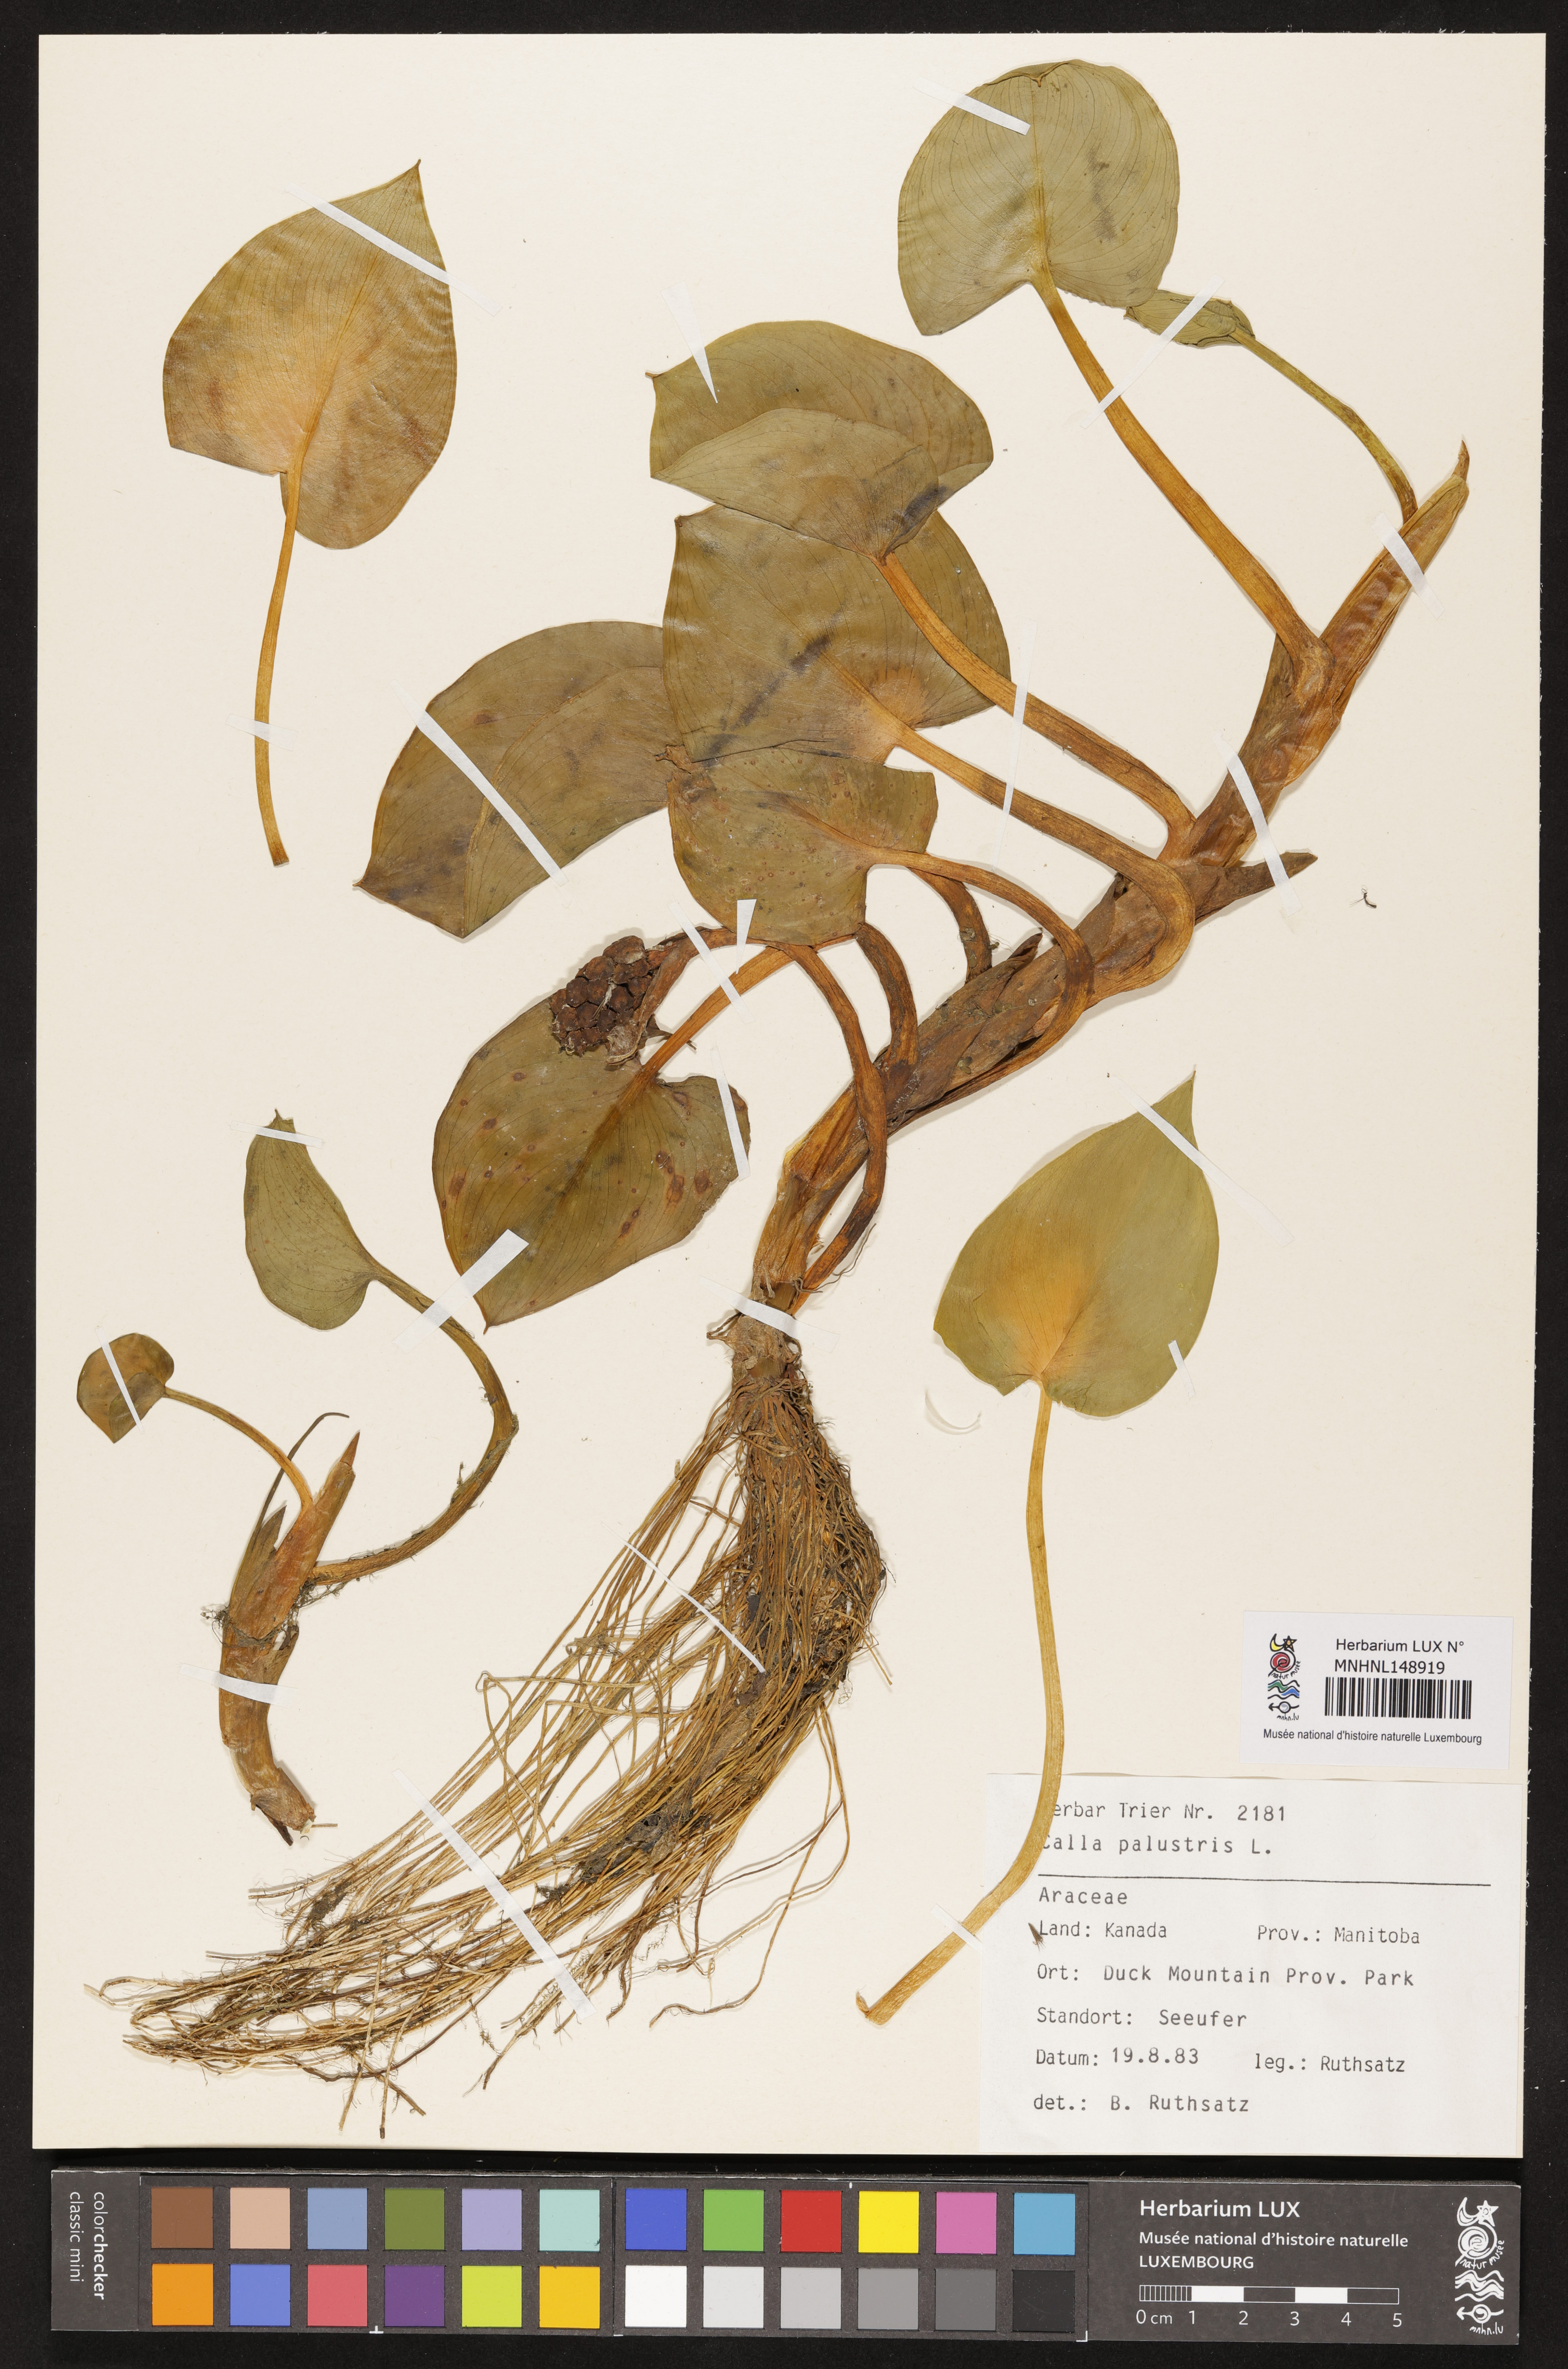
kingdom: Plantae
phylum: Tracheophyta
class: Liliopsida
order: Alismatales
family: Araceae
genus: Calla
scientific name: Calla palustris
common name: Bog arum
